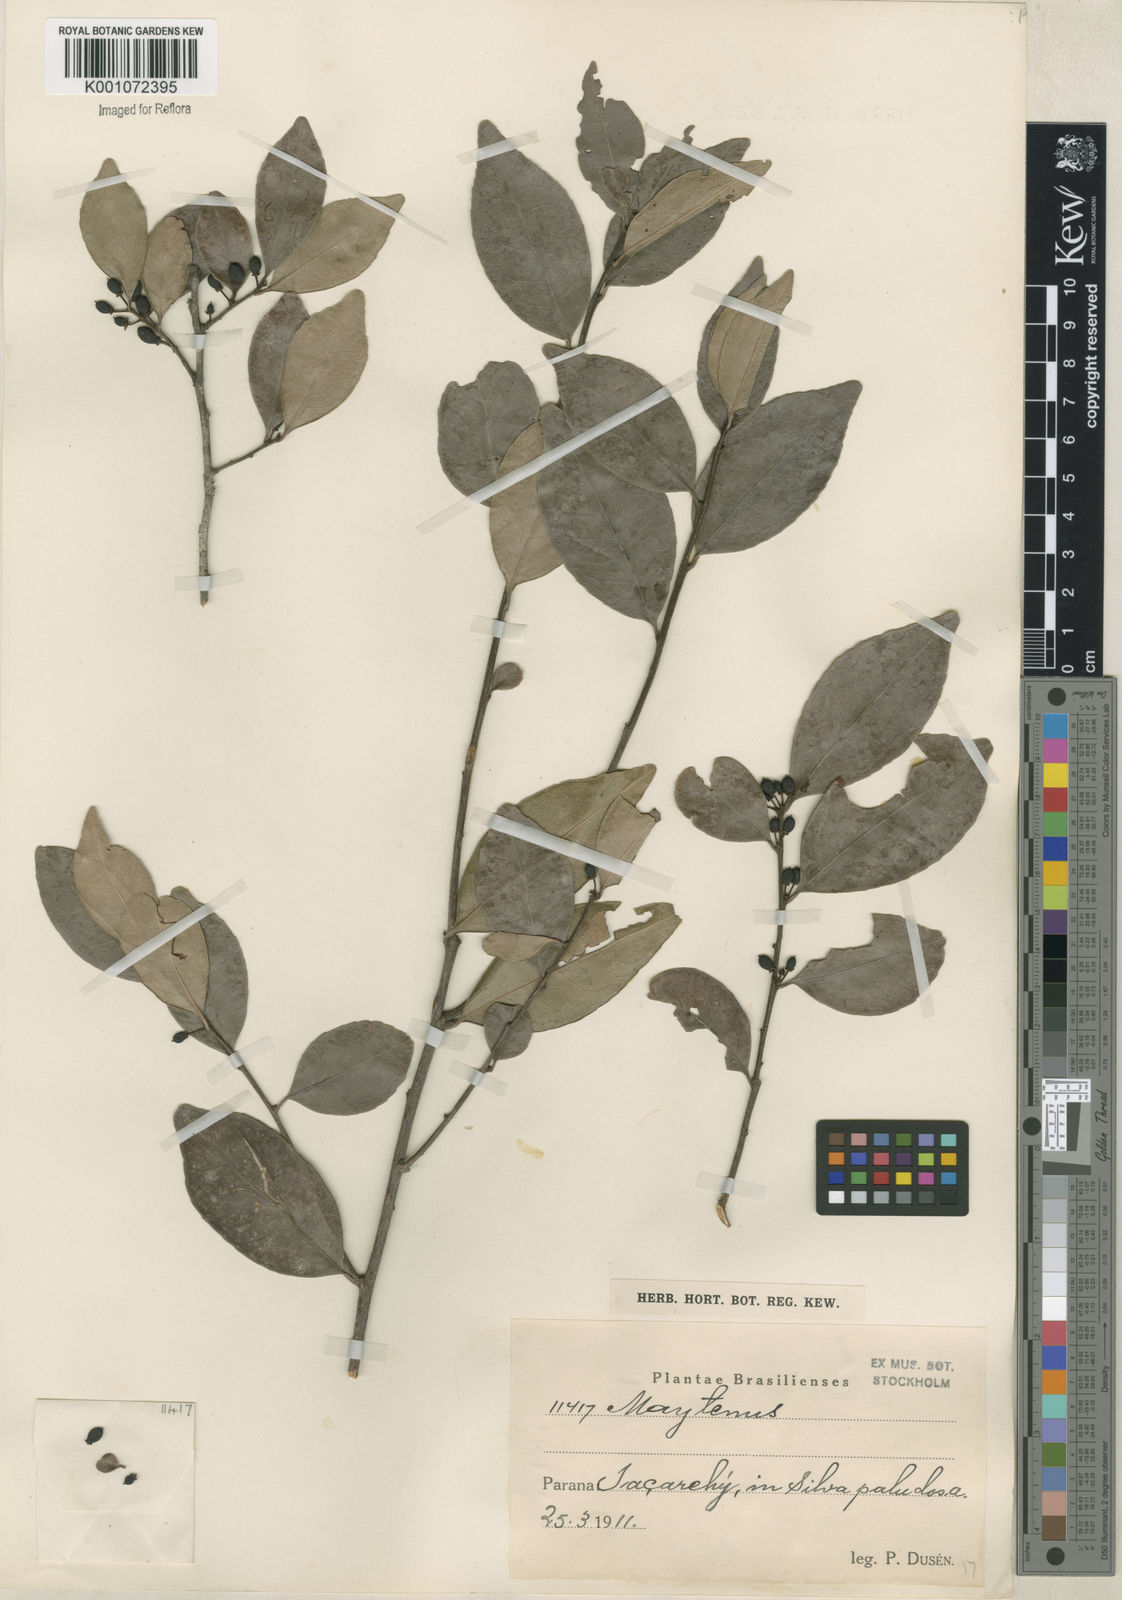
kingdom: Plantae
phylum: Tracheophyta
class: Magnoliopsida
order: Celastrales
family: Celastraceae
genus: Maytenus
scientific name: Maytenus
